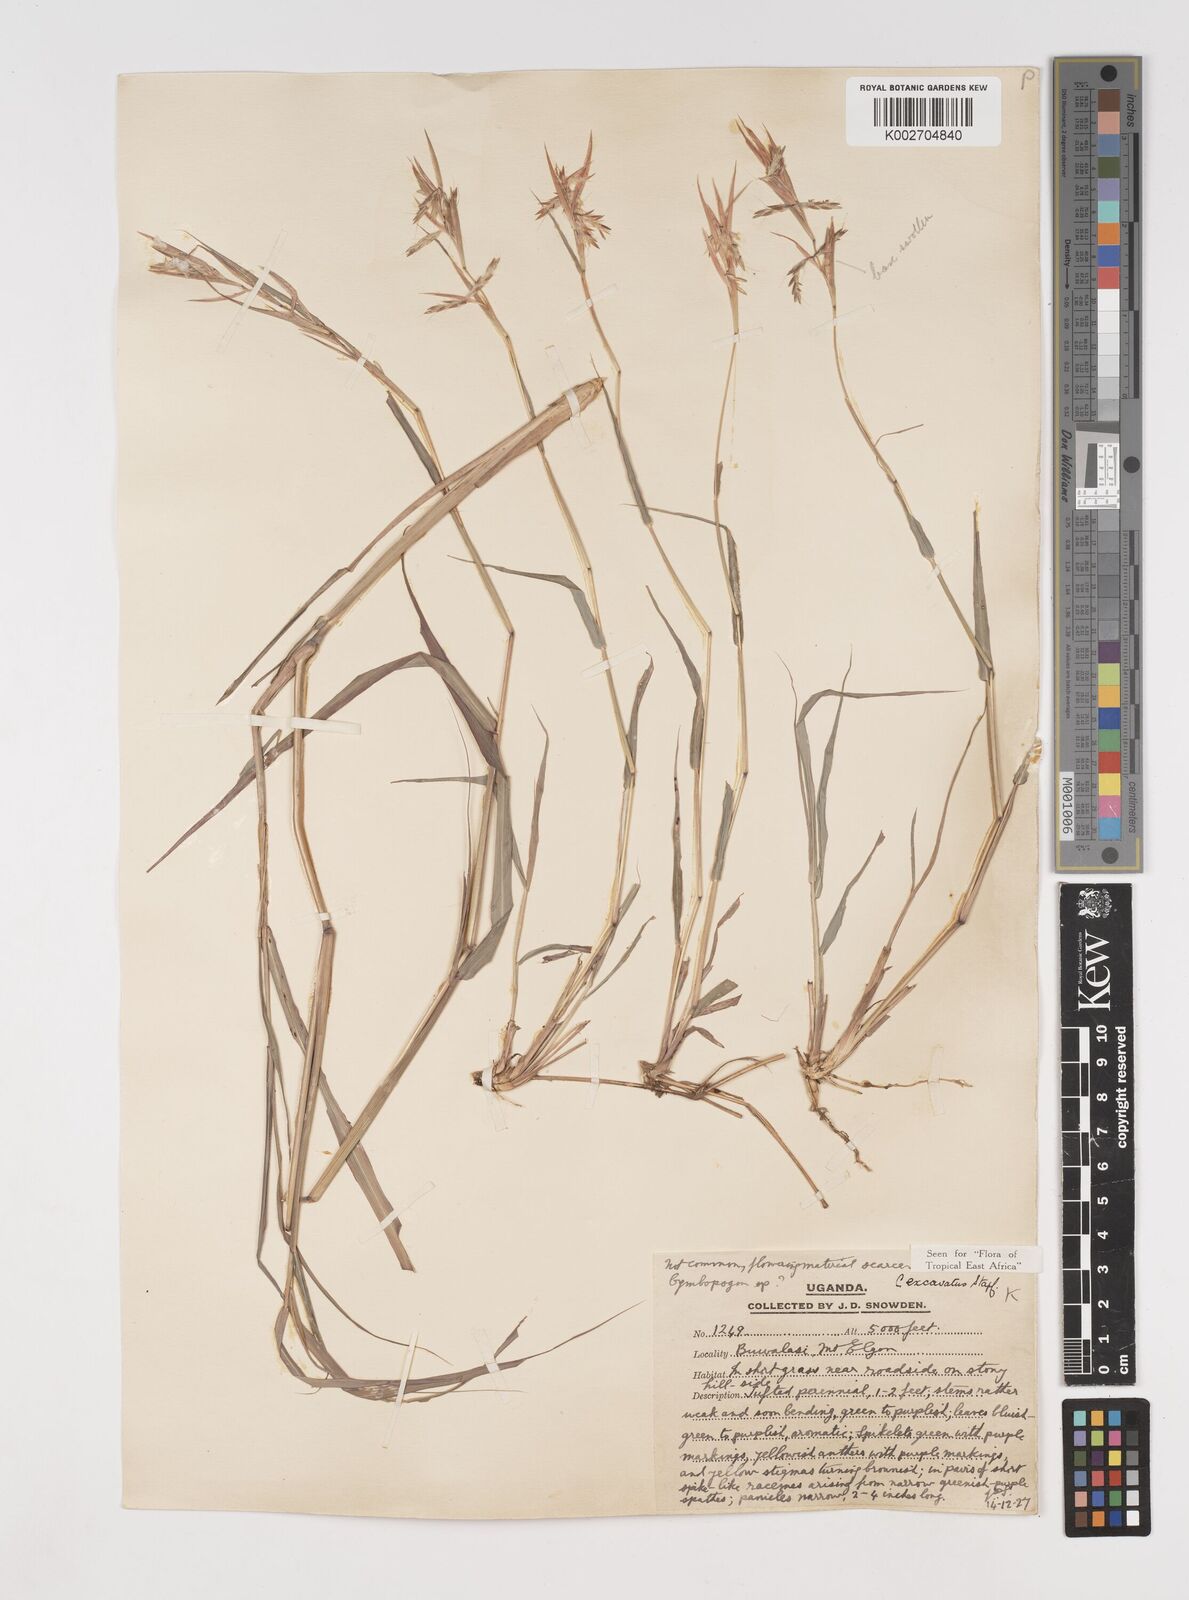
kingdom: Plantae
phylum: Tracheophyta
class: Liliopsida
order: Poales
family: Poaceae
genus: Cymbopogon
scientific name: Cymbopogon caesius
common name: Kachi grass
